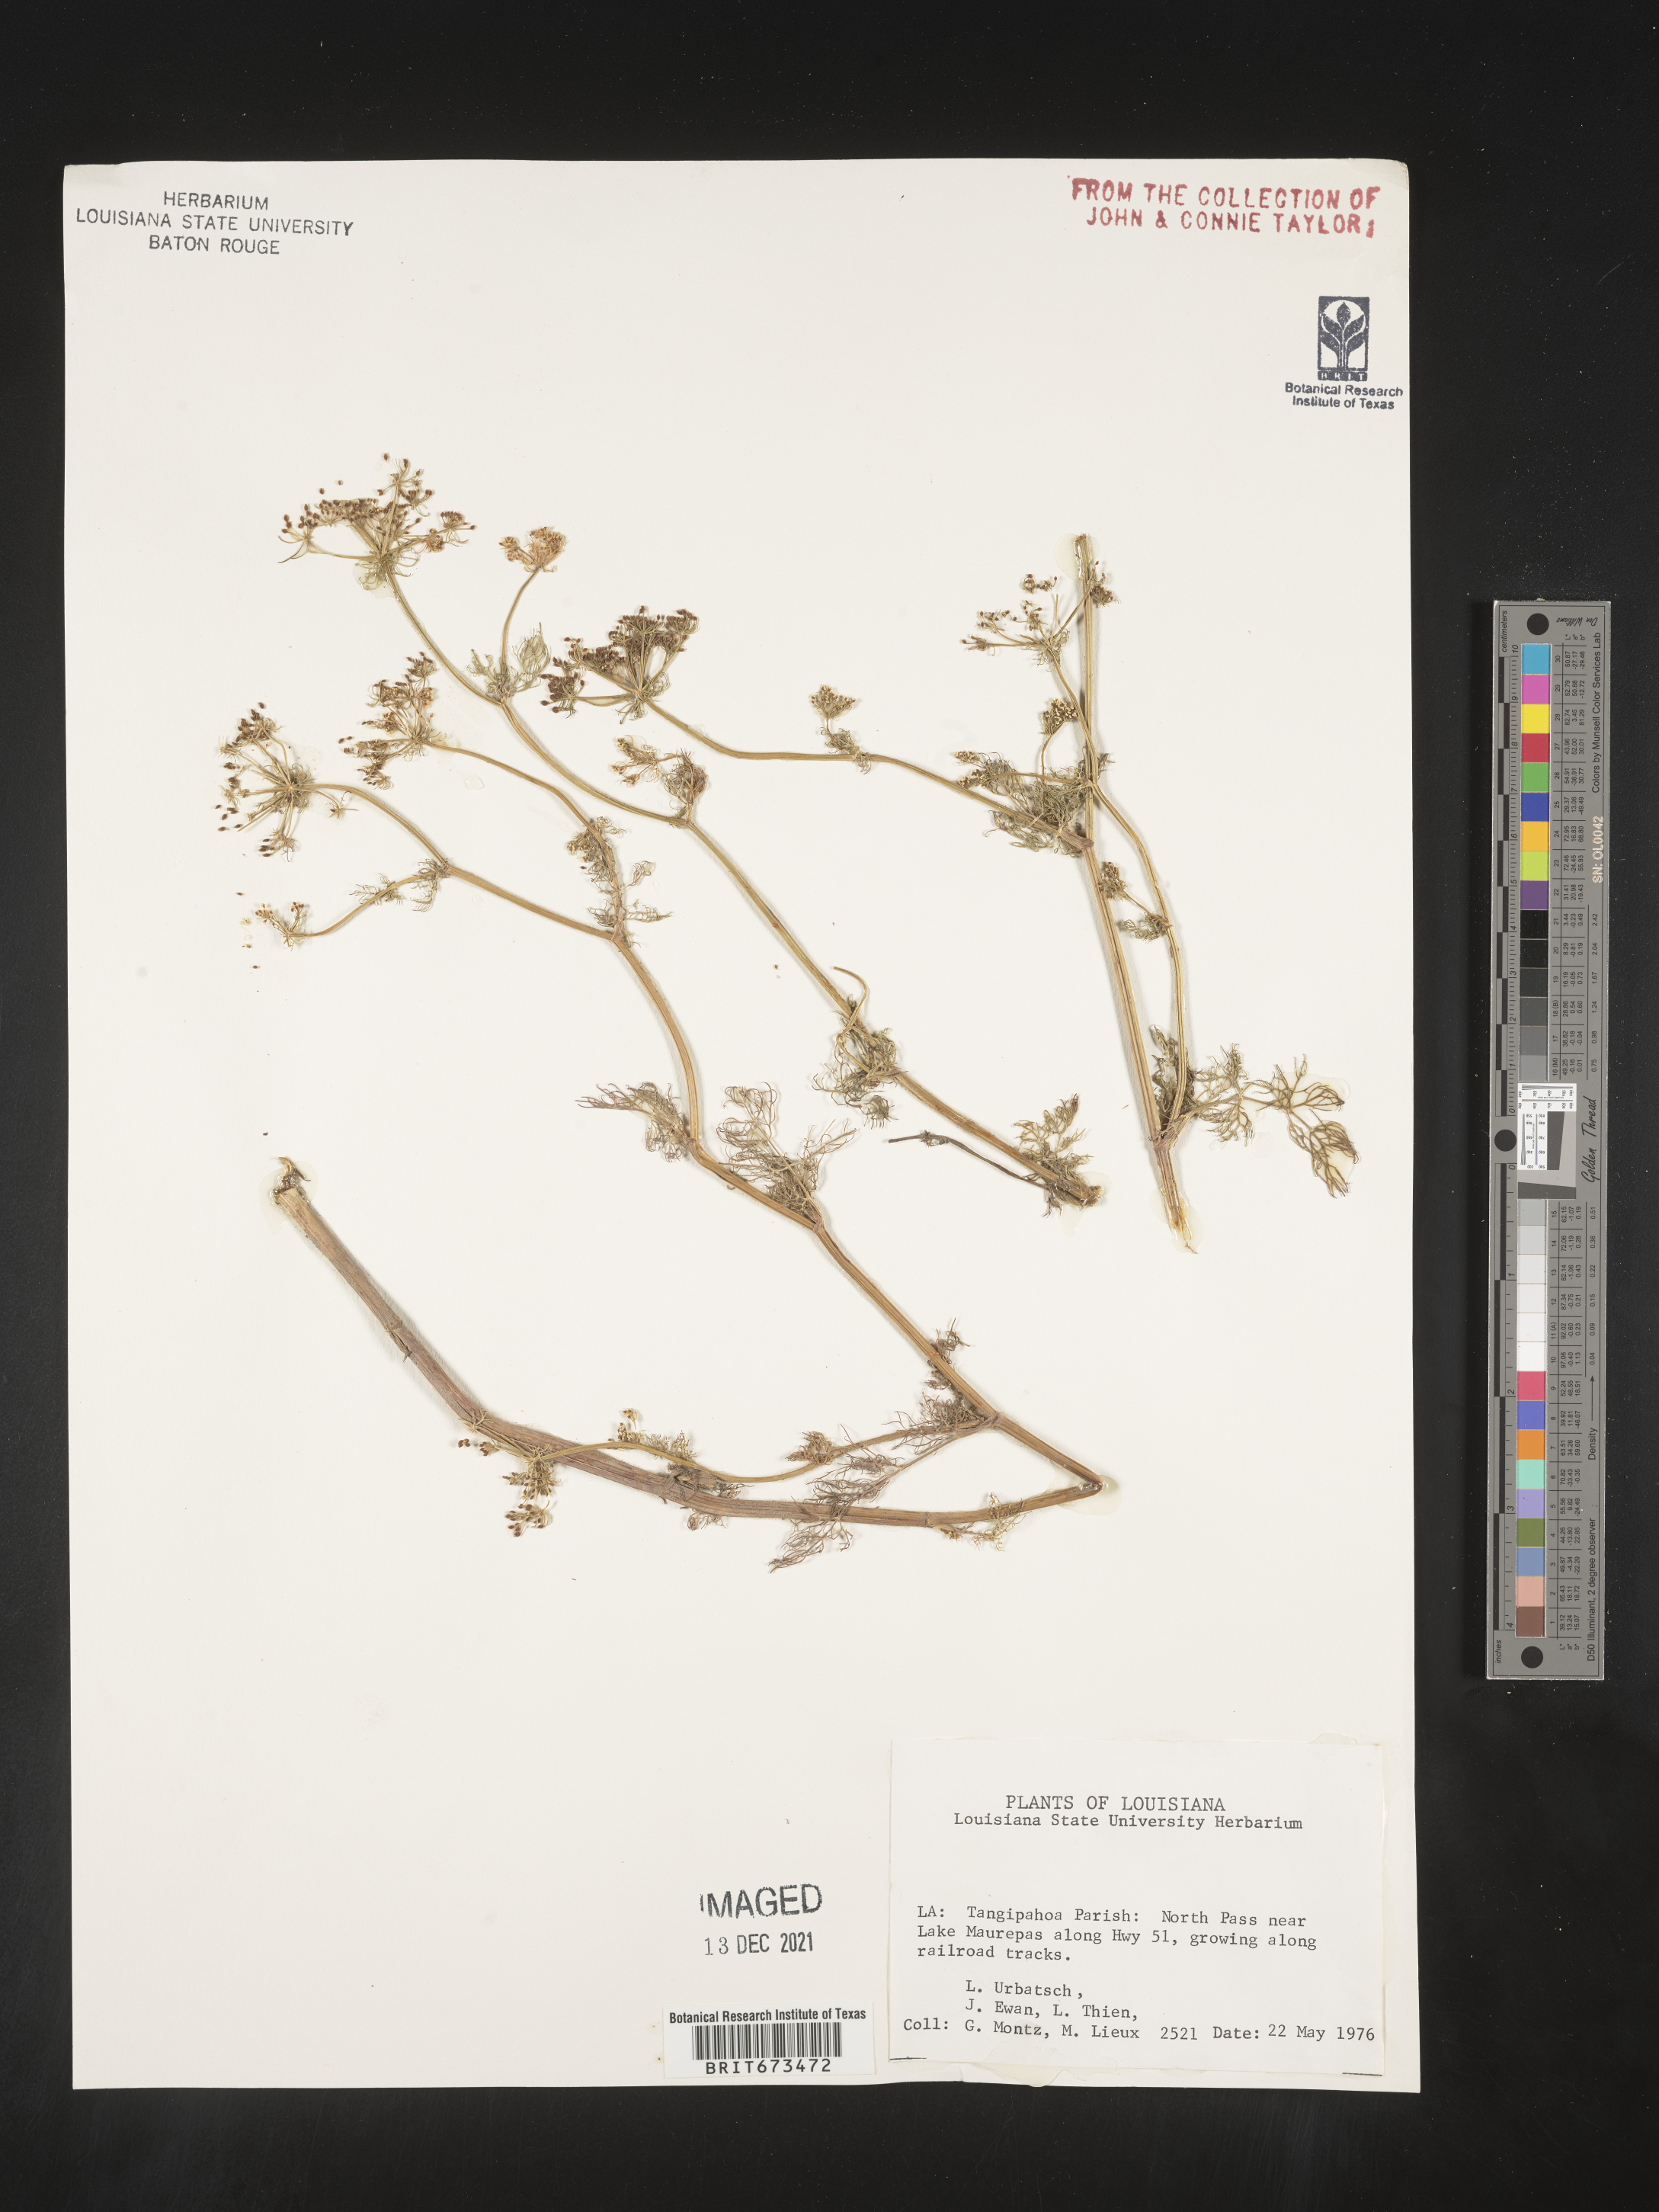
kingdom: Plantae
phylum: Tracheophyta
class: Magnoliopsida
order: Apiales
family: Apiaceae
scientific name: Apiaceae
